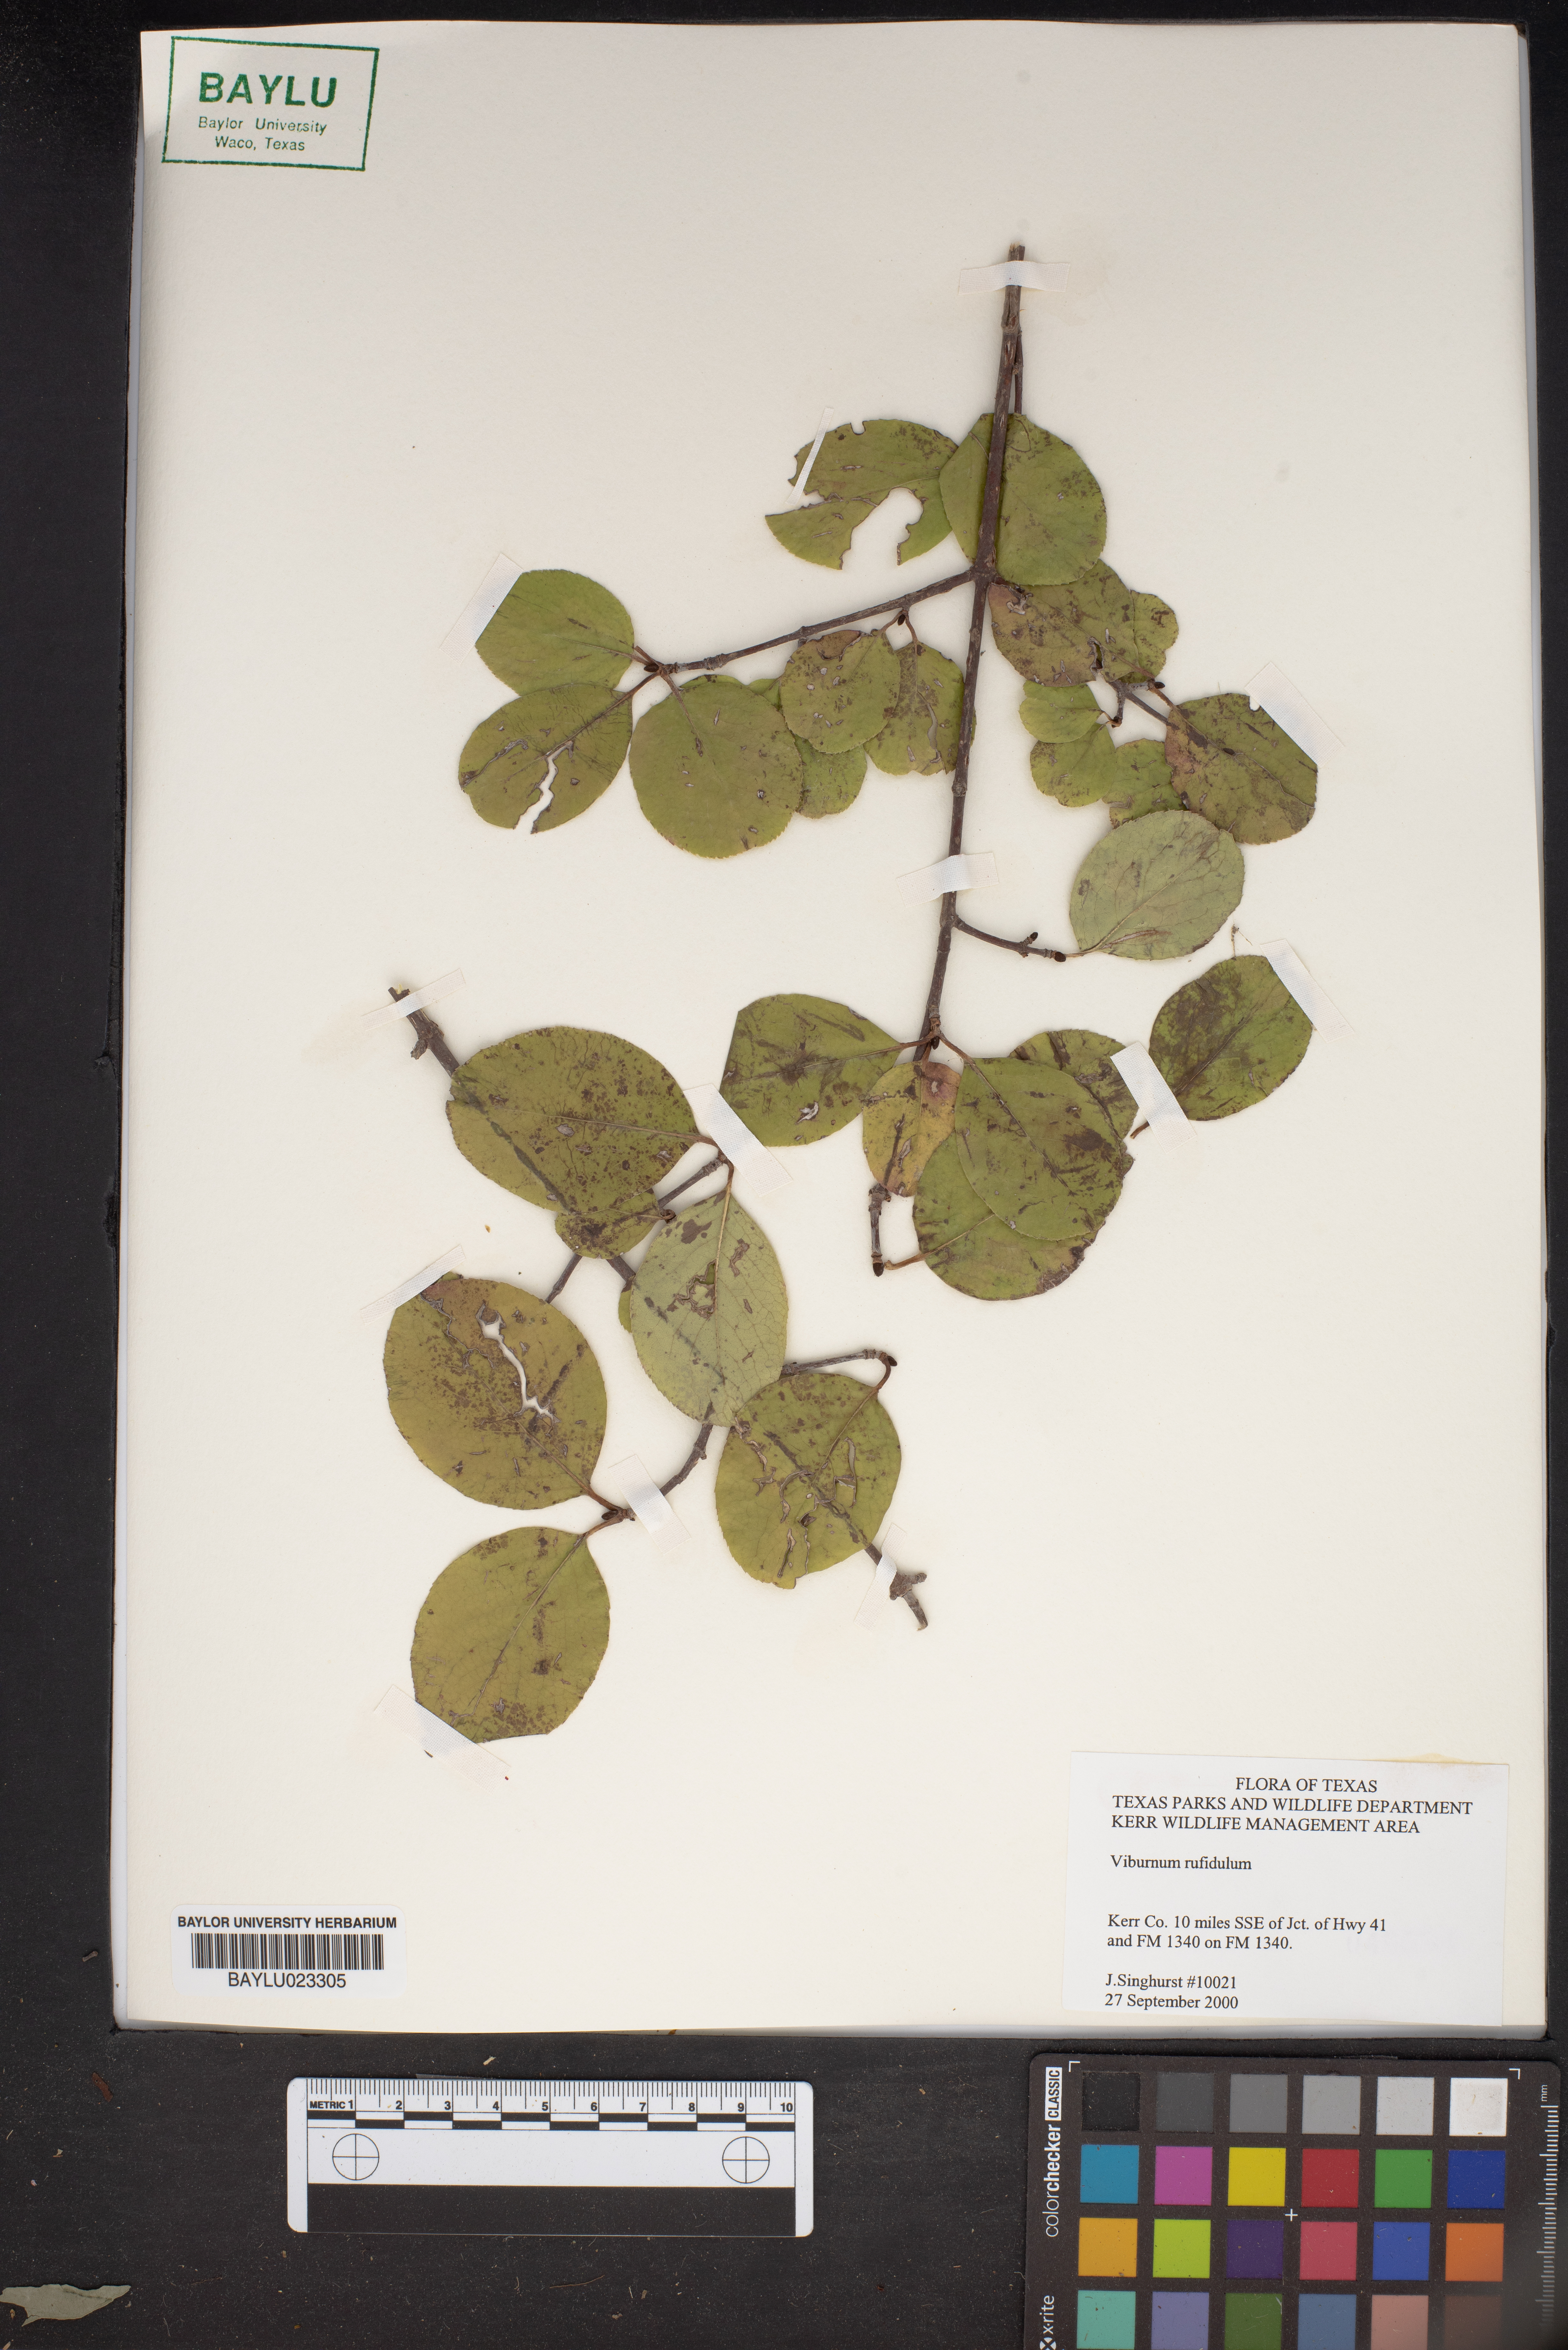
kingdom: Plantae
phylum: Tracheophyta
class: Magnoliopsida
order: Dipsacales
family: Viburnaceae
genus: Viburnum
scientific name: Viburnum rufidulum
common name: Blue haw
